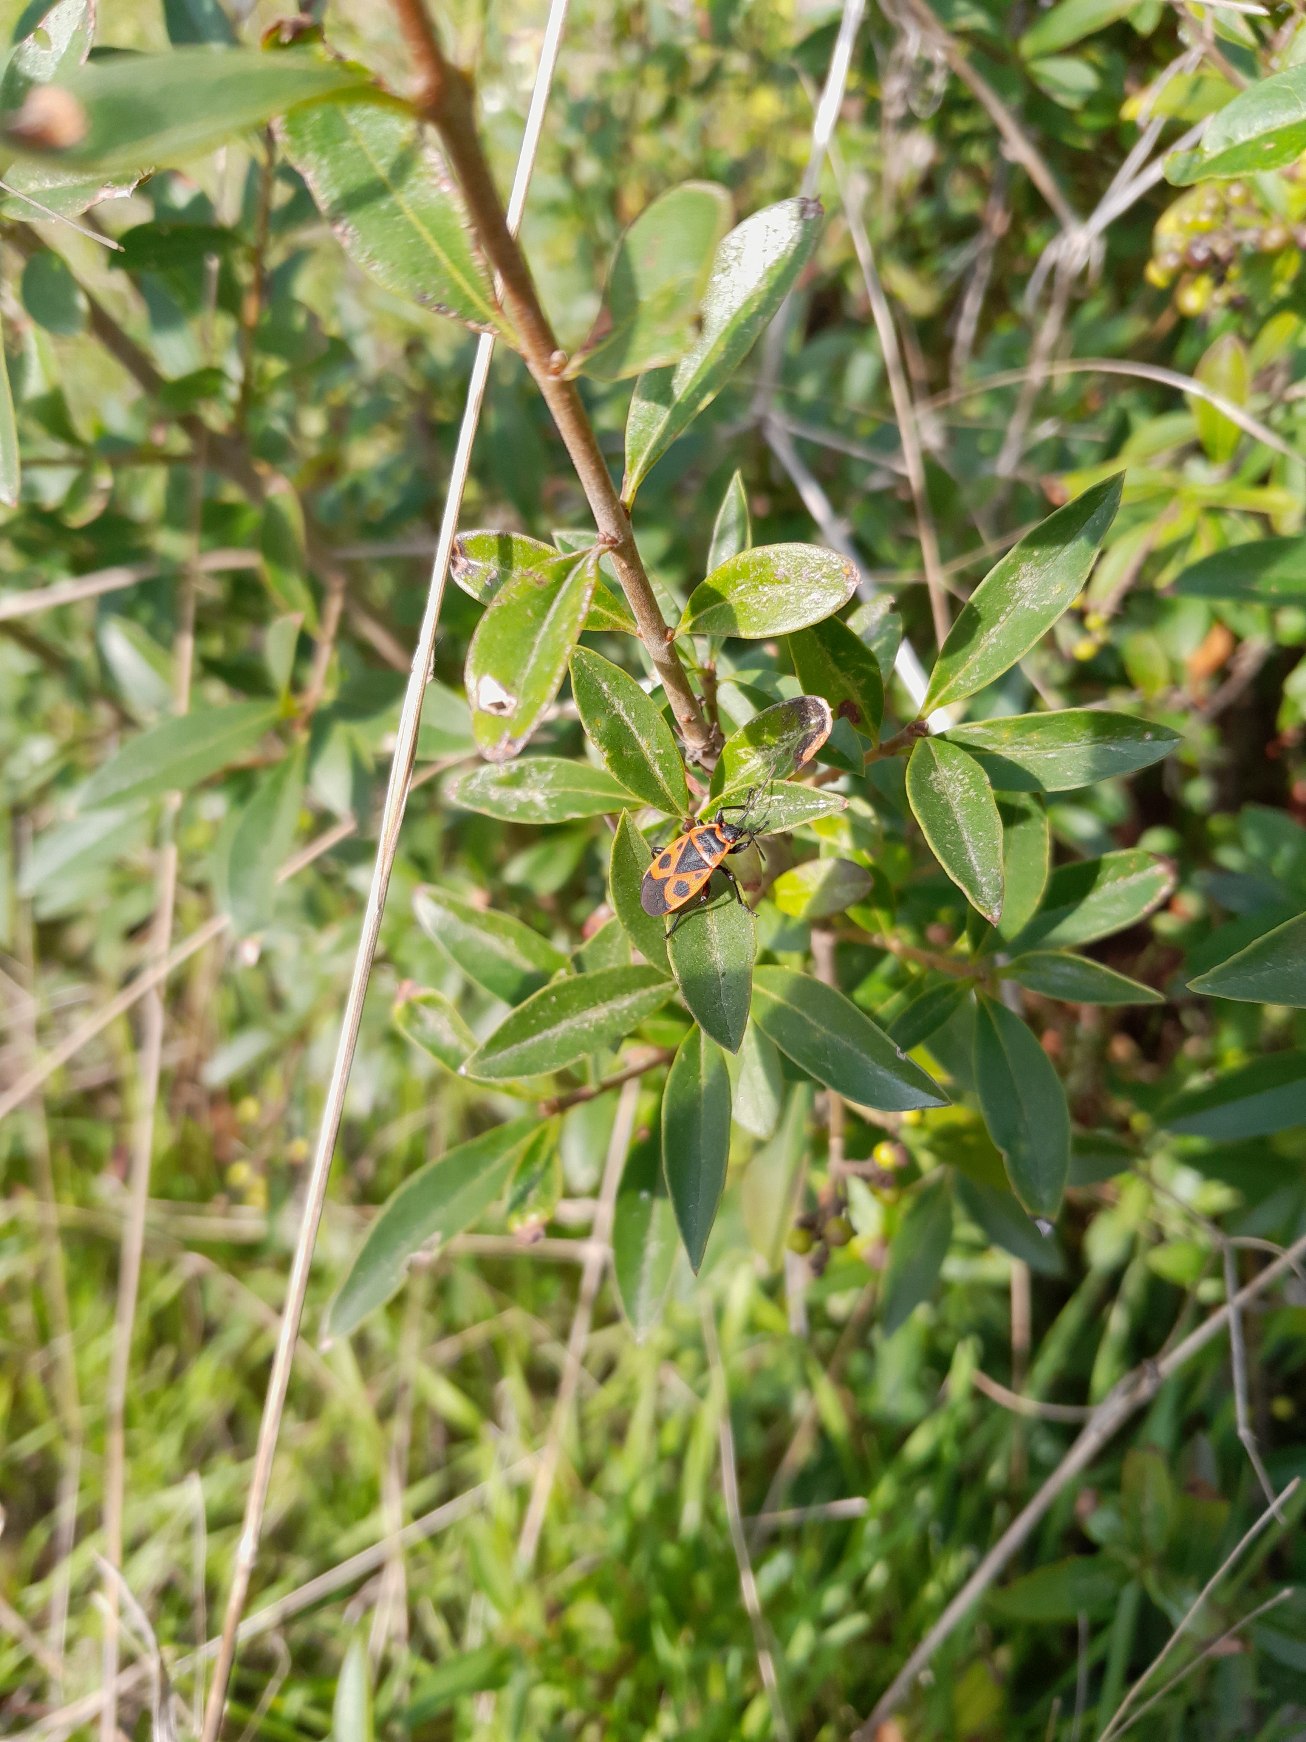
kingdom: Animalia
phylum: Arthropoda
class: Insecta
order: Hemiptera
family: Pyrrhocoridae
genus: Pyrrhocoris
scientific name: Pyrrhocoris apterus
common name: Ildtæge
